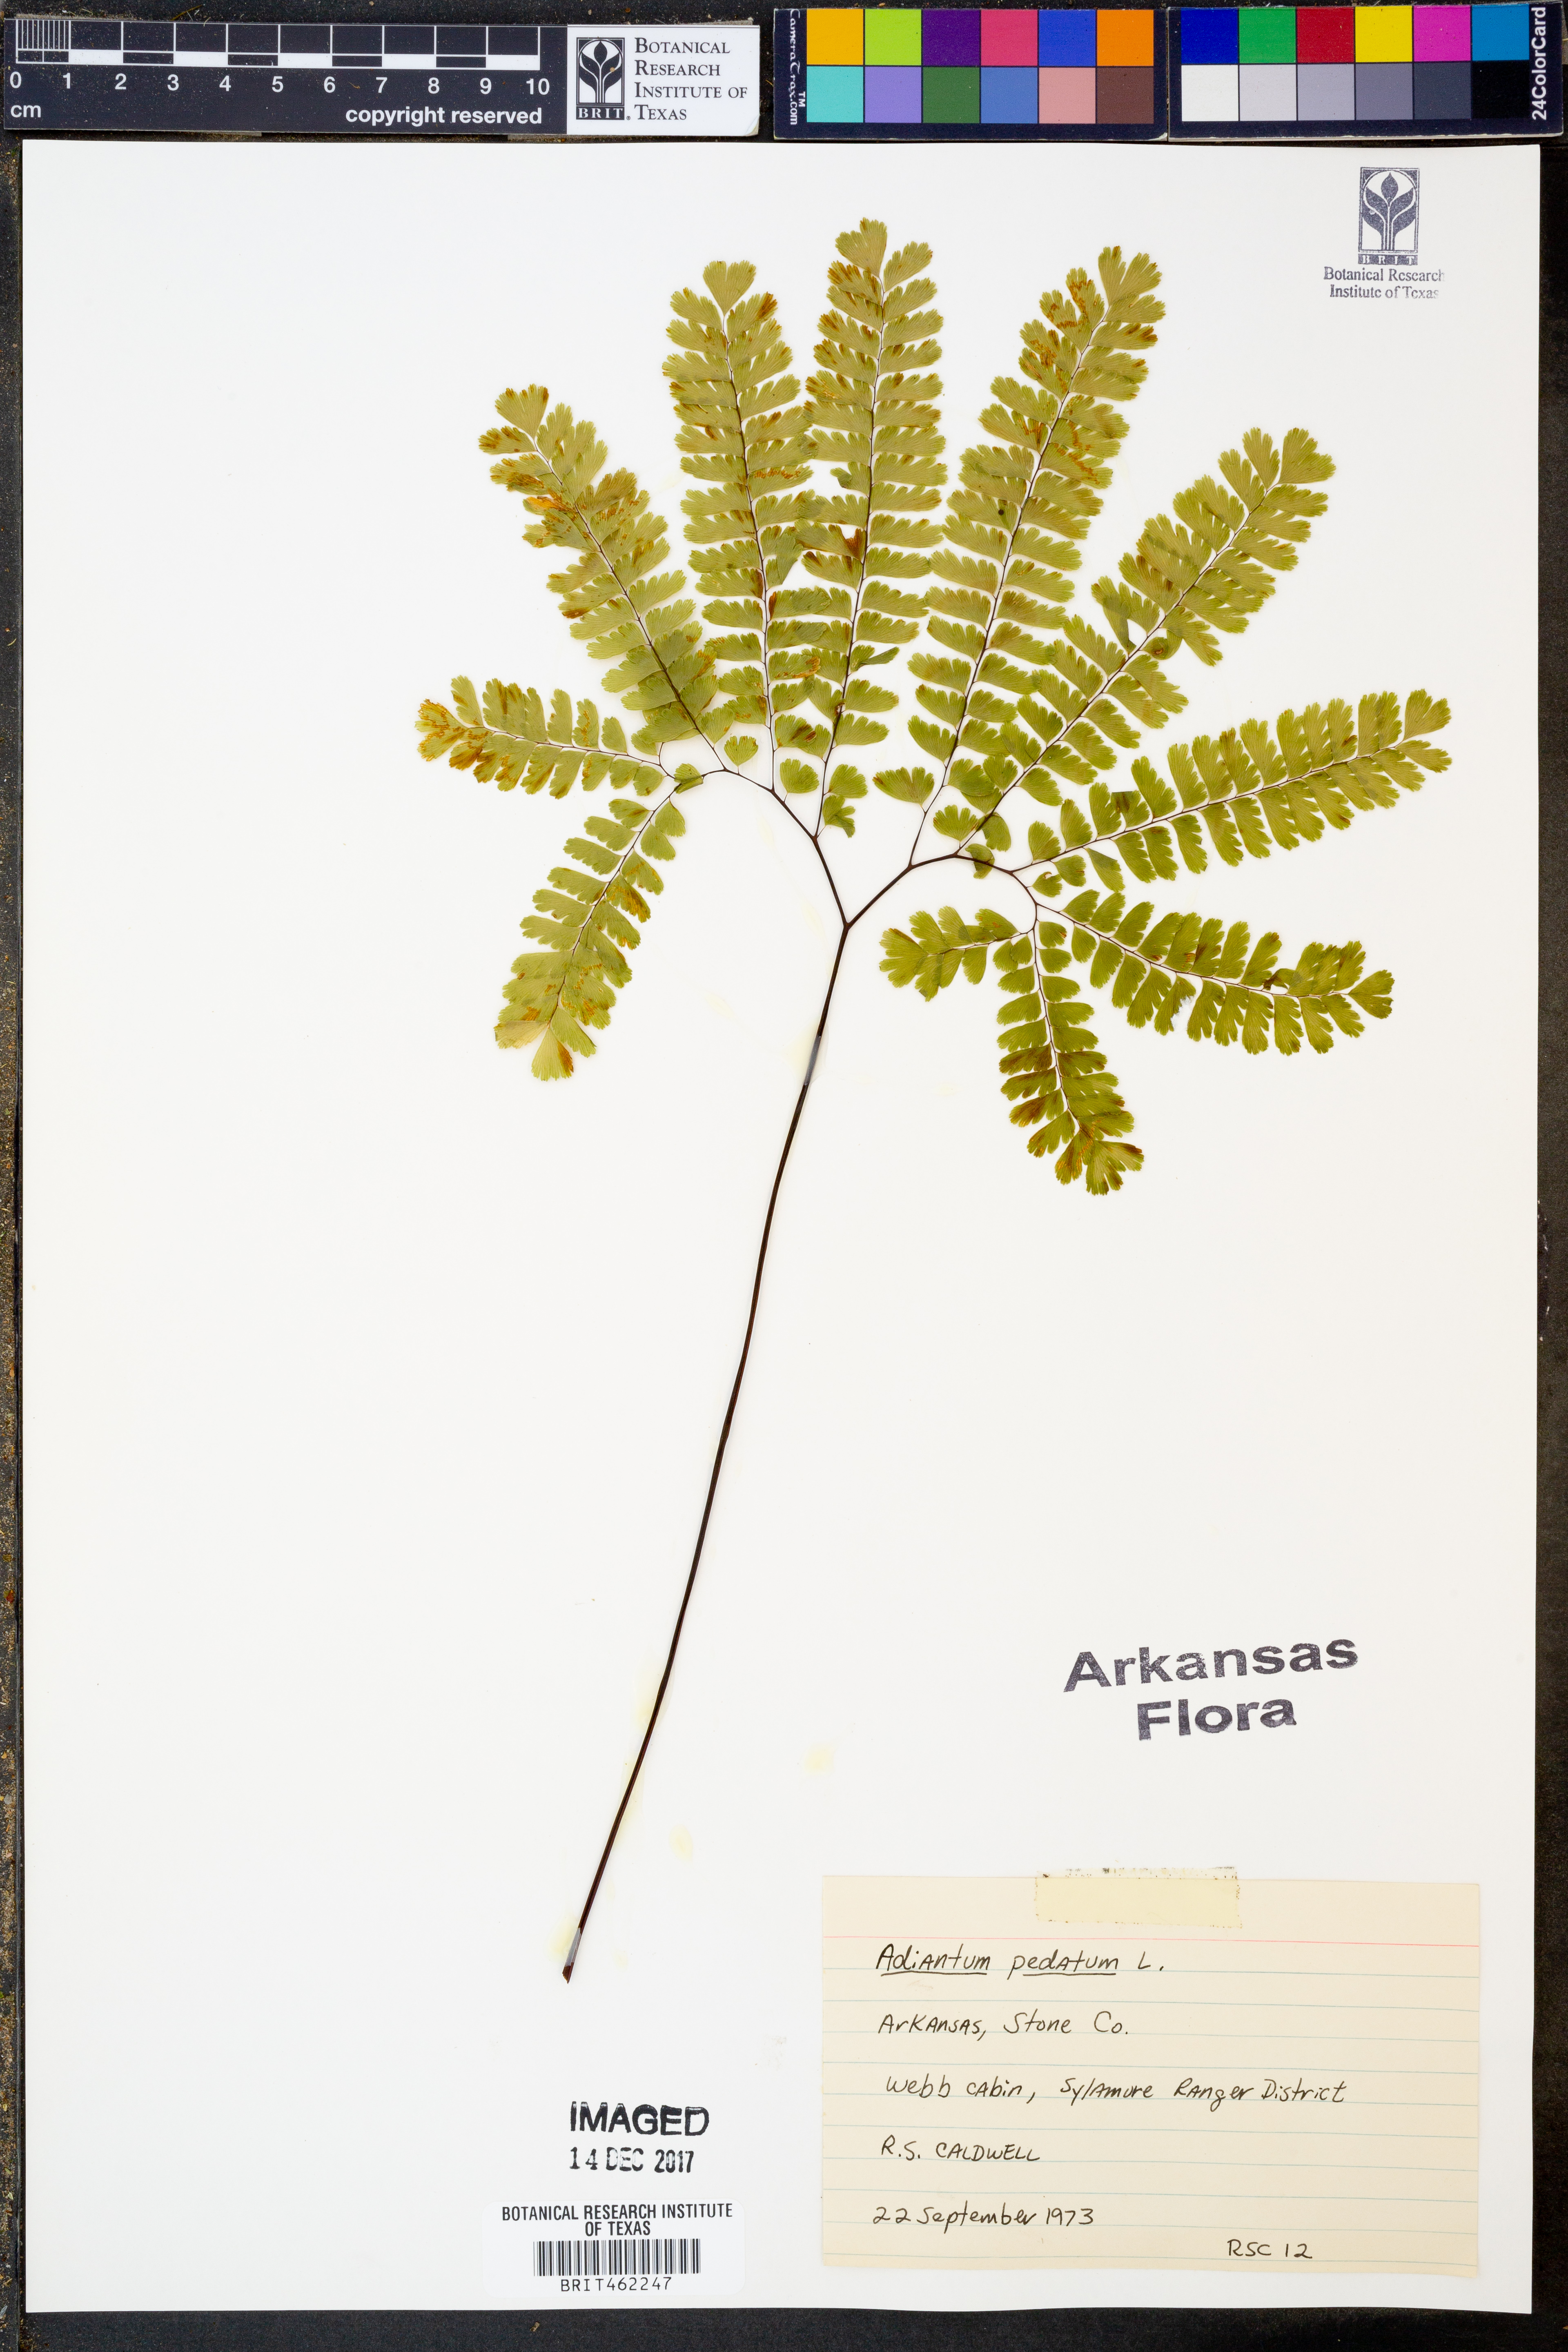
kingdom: Plantae
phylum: Tracheophyta
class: Polypodiopsida
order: Polypodiales
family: Pteridaceae
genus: Adiantum
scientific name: Adiantum pedatum
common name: Five-finger fern
